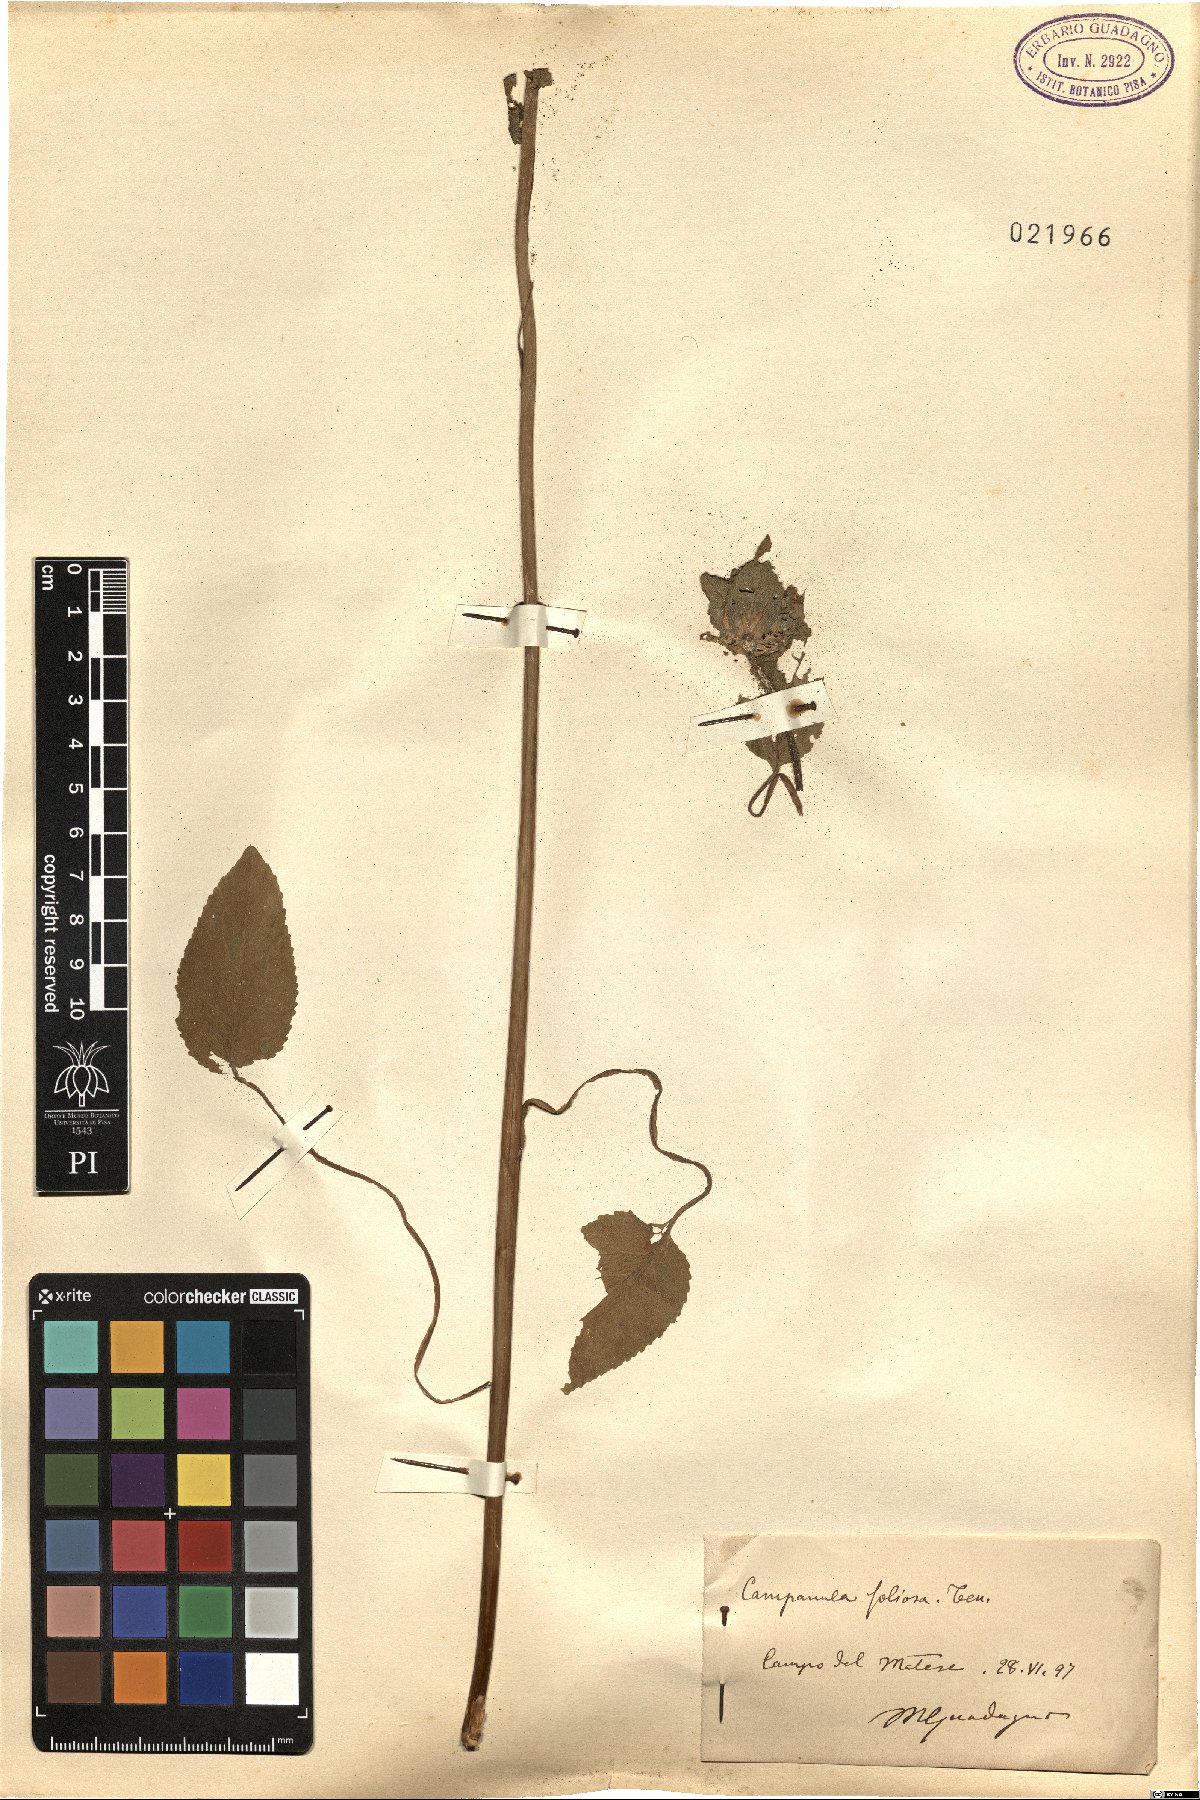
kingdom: Plantae
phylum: Tracheophyta
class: Magnoliopsida
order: Asterales
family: Campanulaceae
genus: Campanula
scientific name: Campanula foliosa
